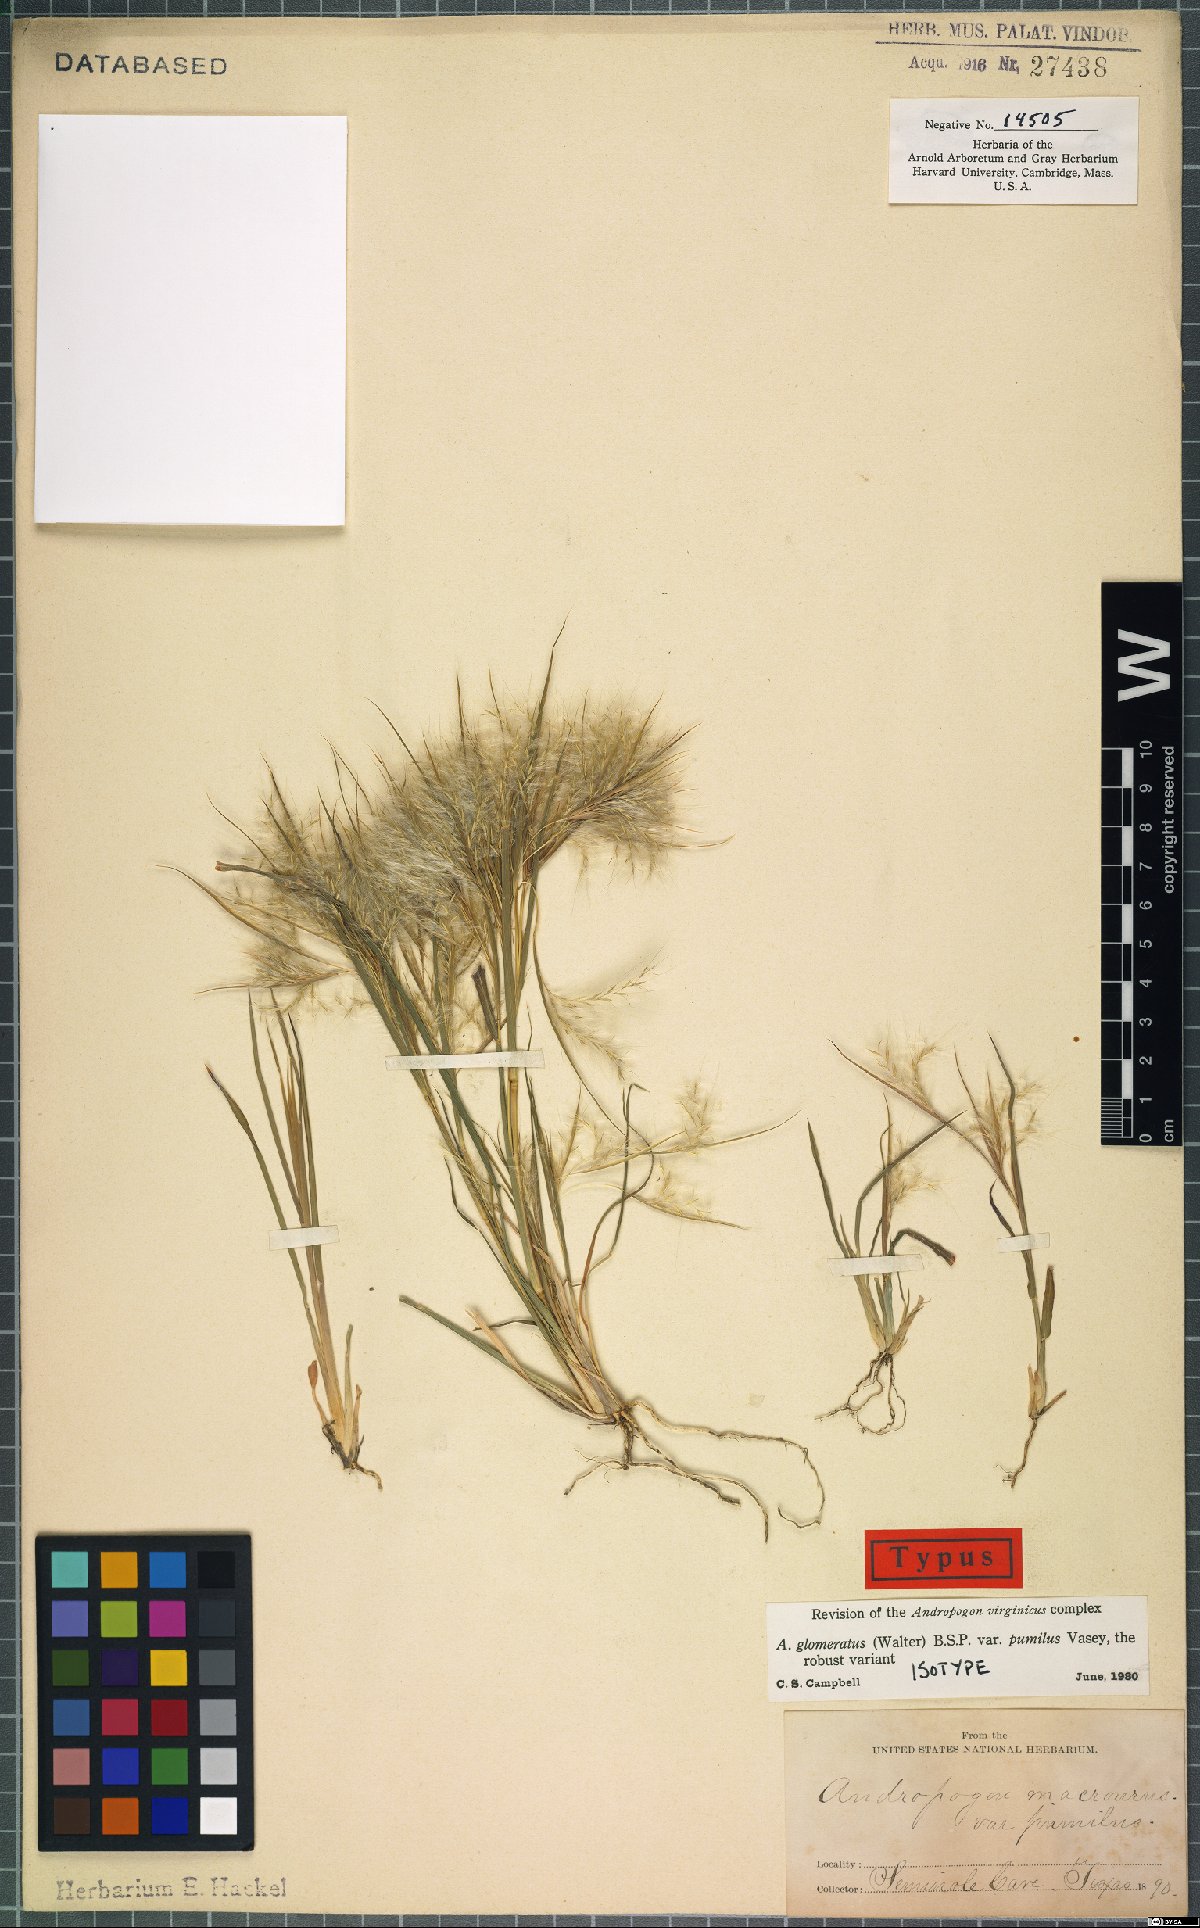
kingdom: Plantae
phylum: Tracheophyta
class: Liliopsida
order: Poales
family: Poaceae
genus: Andropogon
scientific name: Andropogon tenuispatheus
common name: Bushy bluestem
